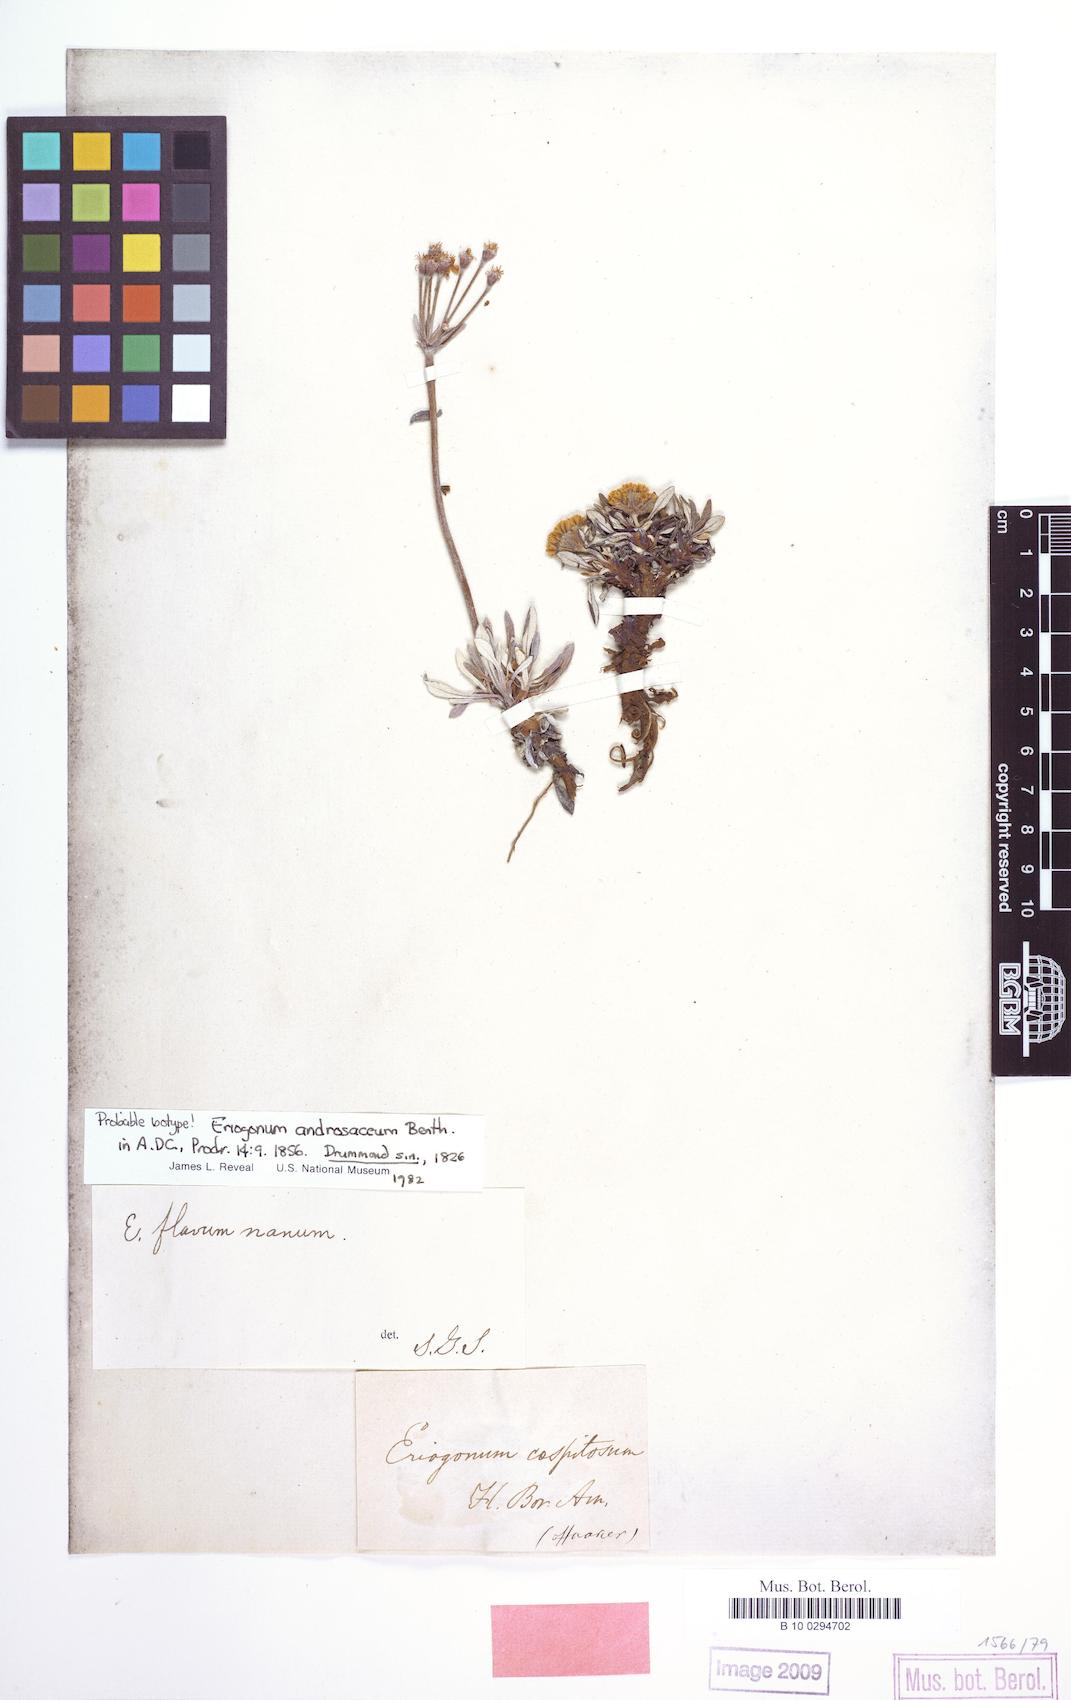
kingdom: Plantae
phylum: Tracheophyta
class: Magnoliopsida
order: Caryophyllales
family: Polygonaceae
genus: Eriogonum
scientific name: Eriogonum androsaceum
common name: Rock-jasmine wild buckwheat
